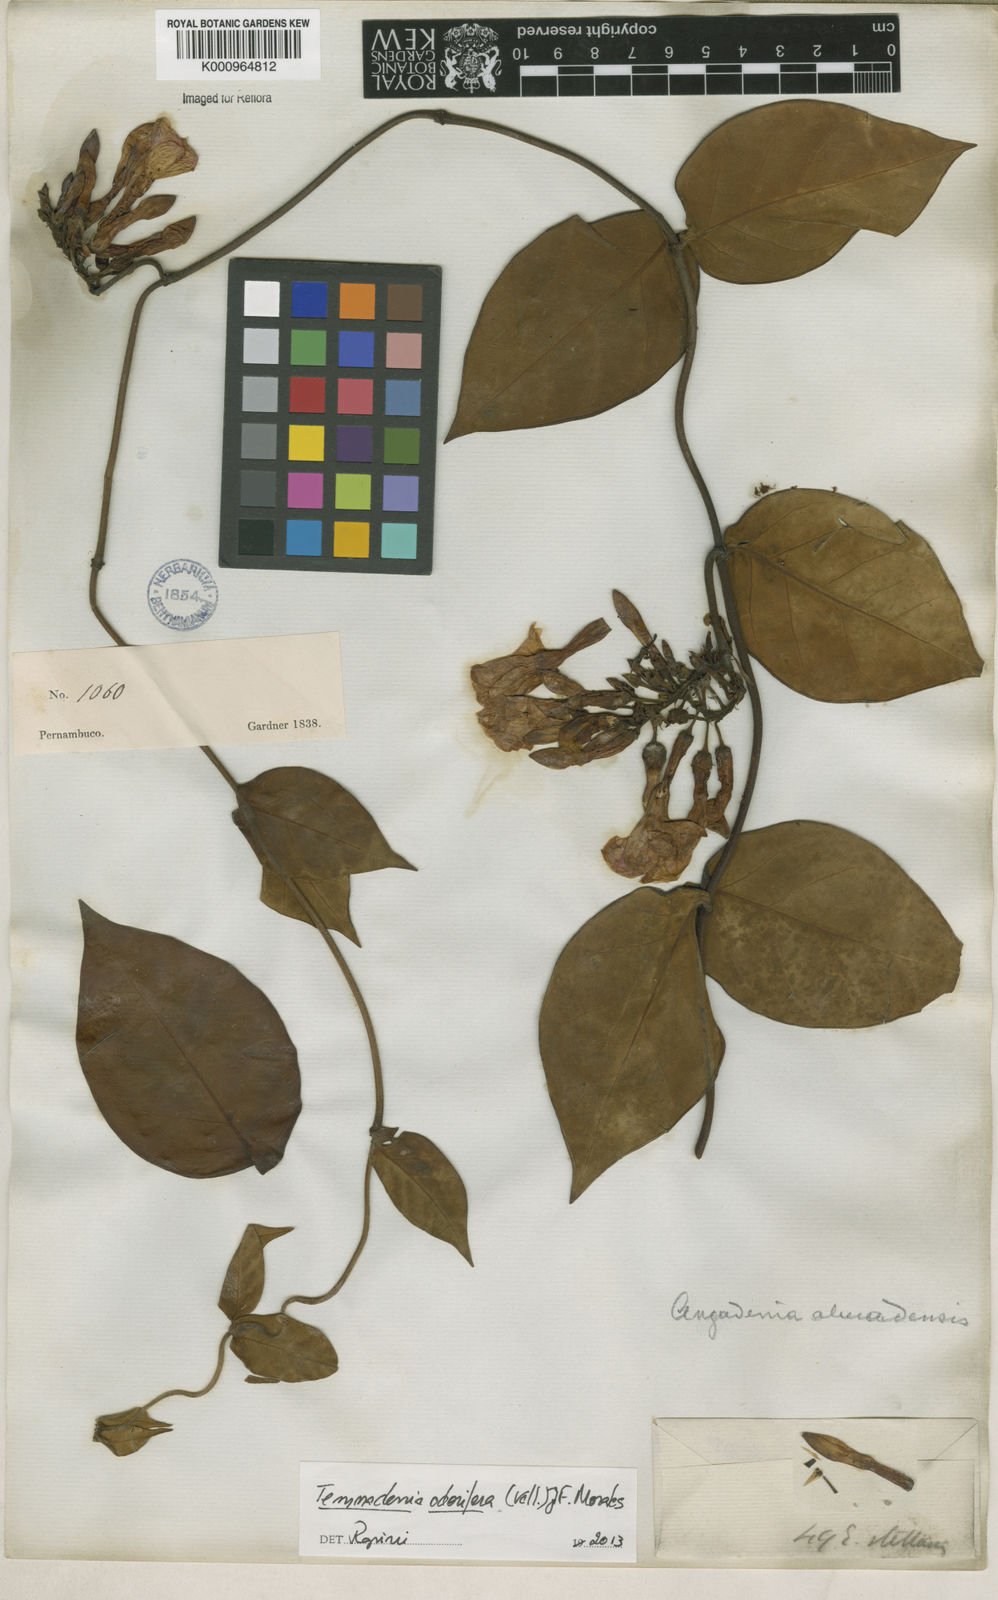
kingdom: Plantae
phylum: Tracheophyta
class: Magnoliopsida
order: Gentianales
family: Apocynaceae
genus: Temnadenia
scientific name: Temnadenia odorifera
